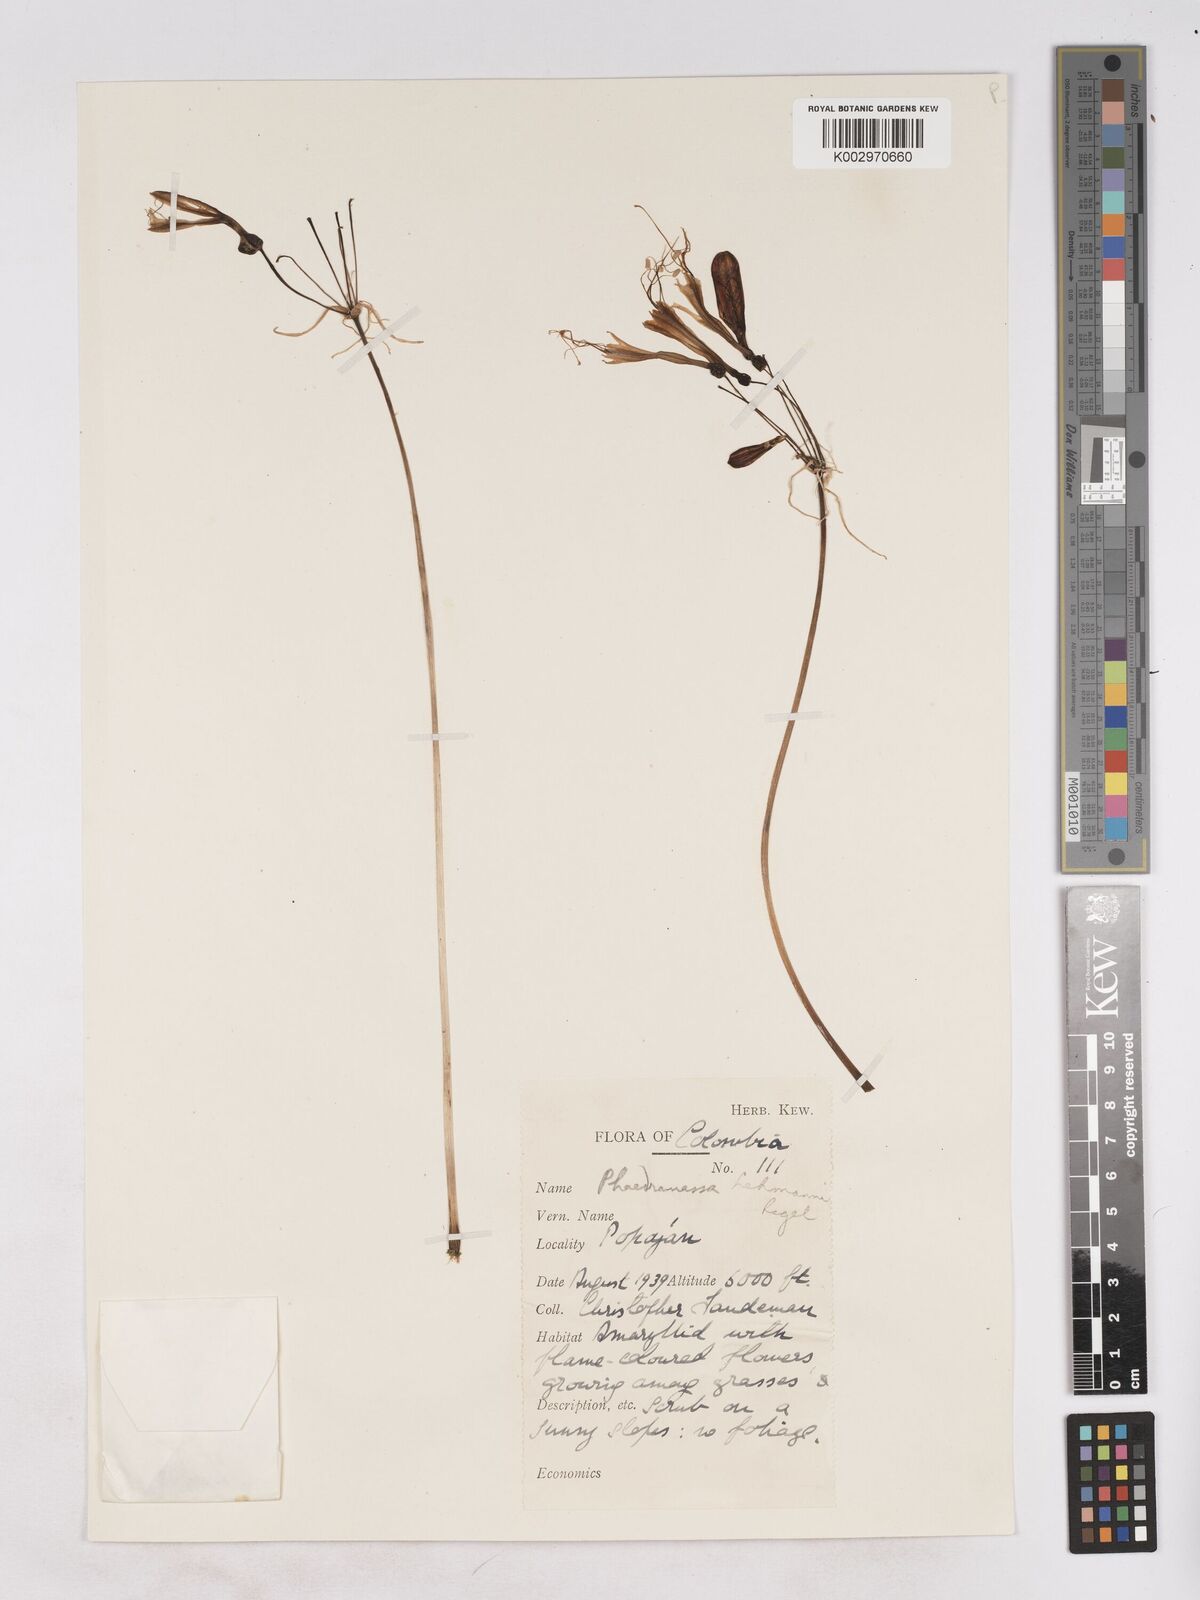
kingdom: Plantae
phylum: Tracheophyta
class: Liliopsida
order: Asparagales
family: Amaryllidaceae
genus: Phaedranassa
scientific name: Phaedranassa lehmannii
